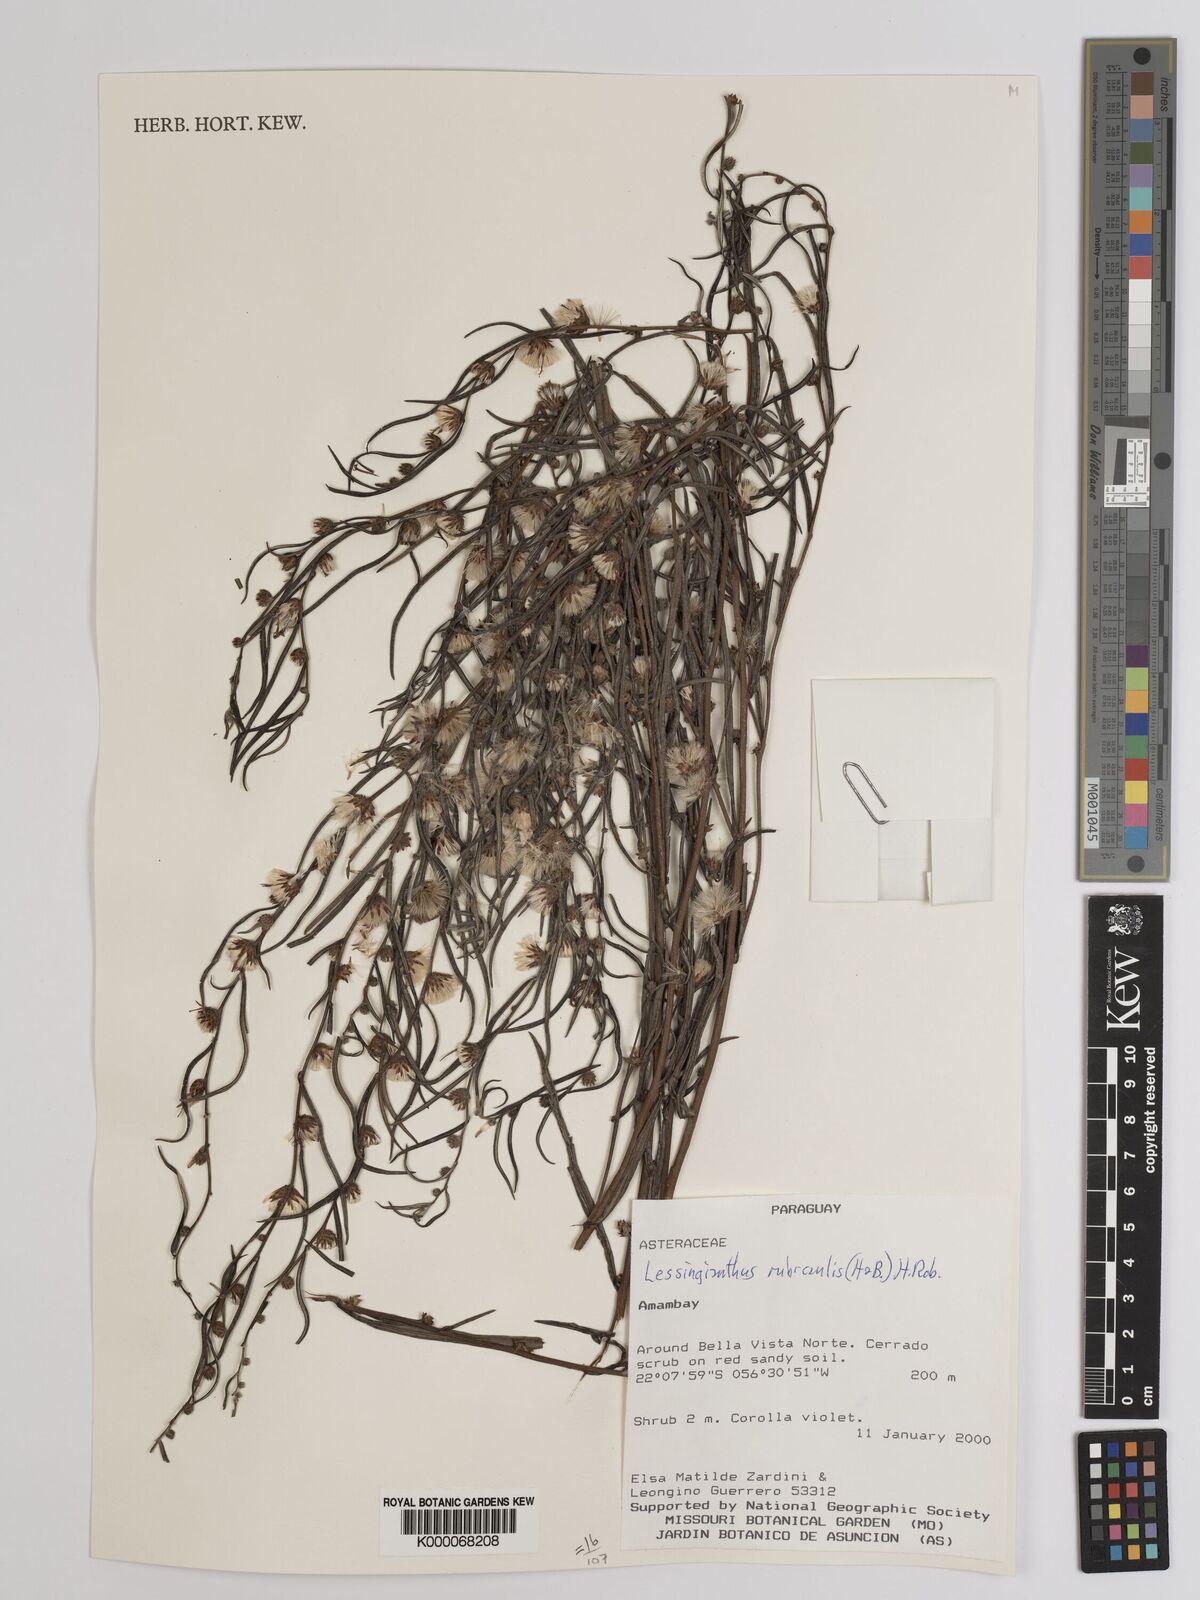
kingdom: Plantae
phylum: Tracheophyta
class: Magnoliopsida
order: Asterales
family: Asteraceae
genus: Lessingianthus
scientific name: Lessingianthus rubricaulis
